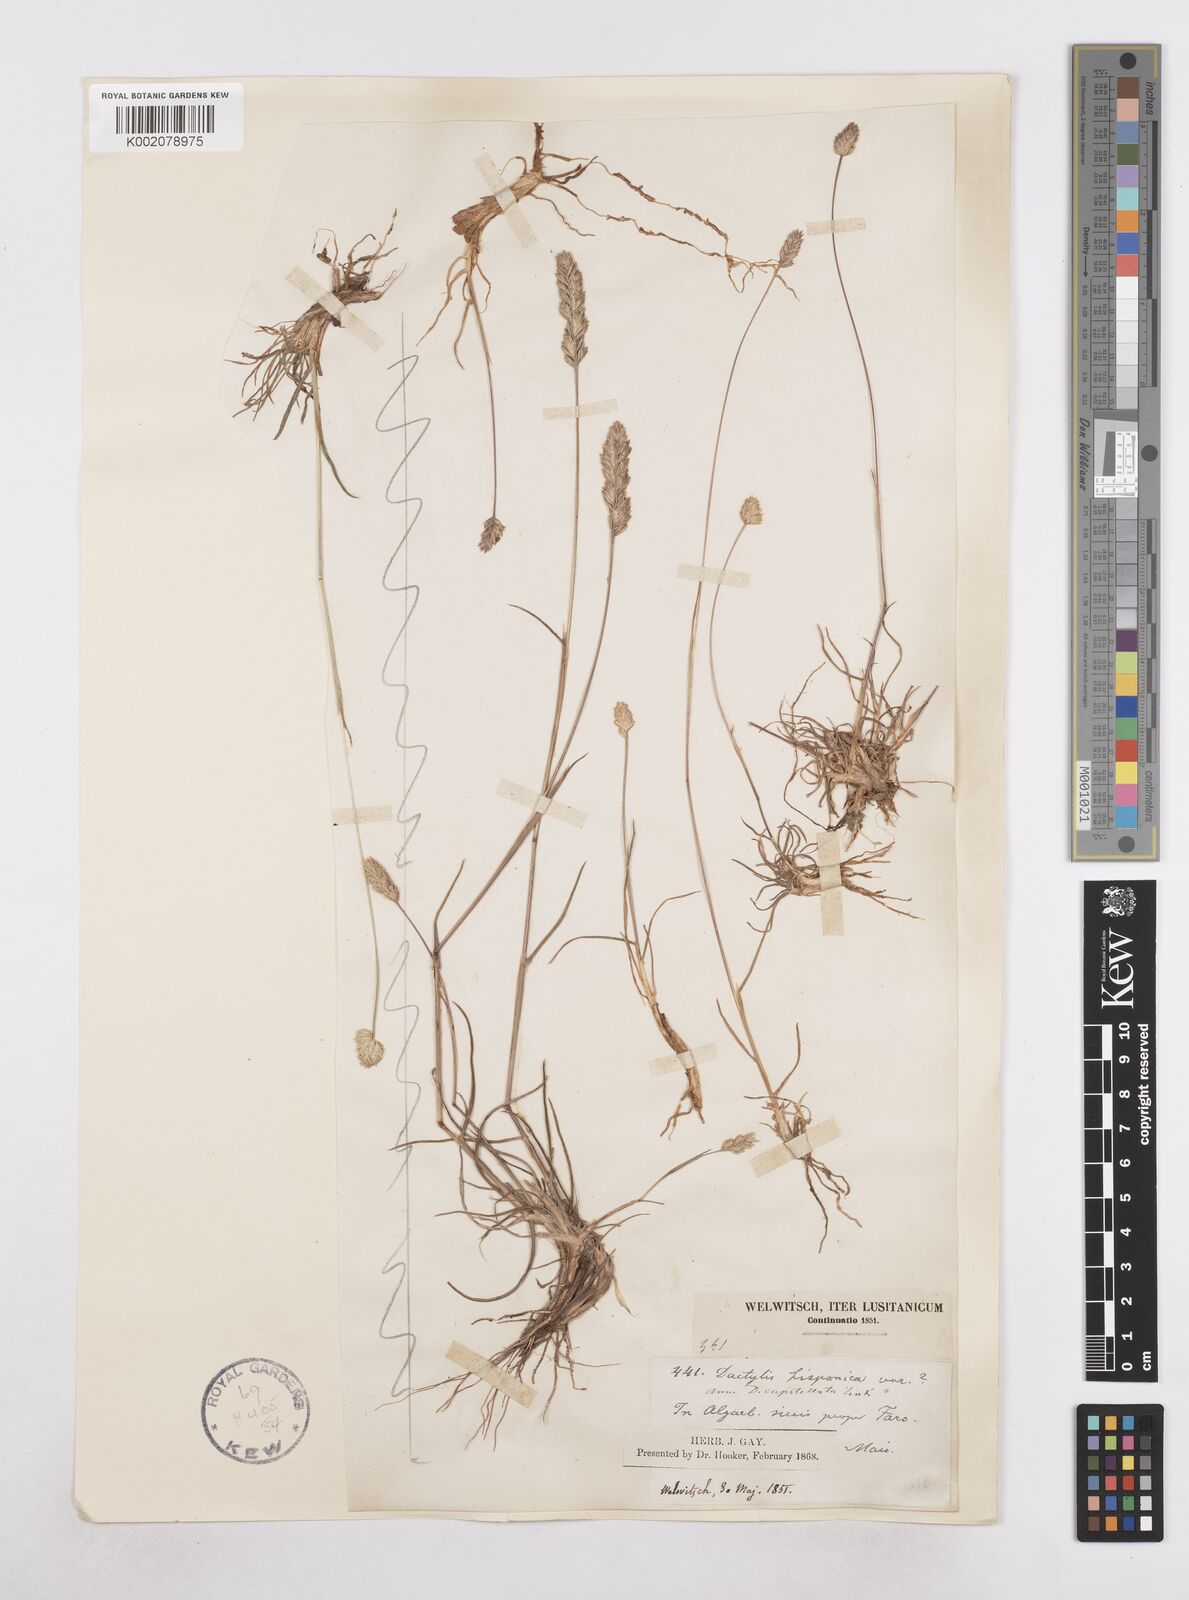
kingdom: Plantae
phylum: Tracheophyta
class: Liliopsida
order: Poales
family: Poaceae
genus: Dactylis
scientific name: Dactylis glomerata
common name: Orchardgrass
